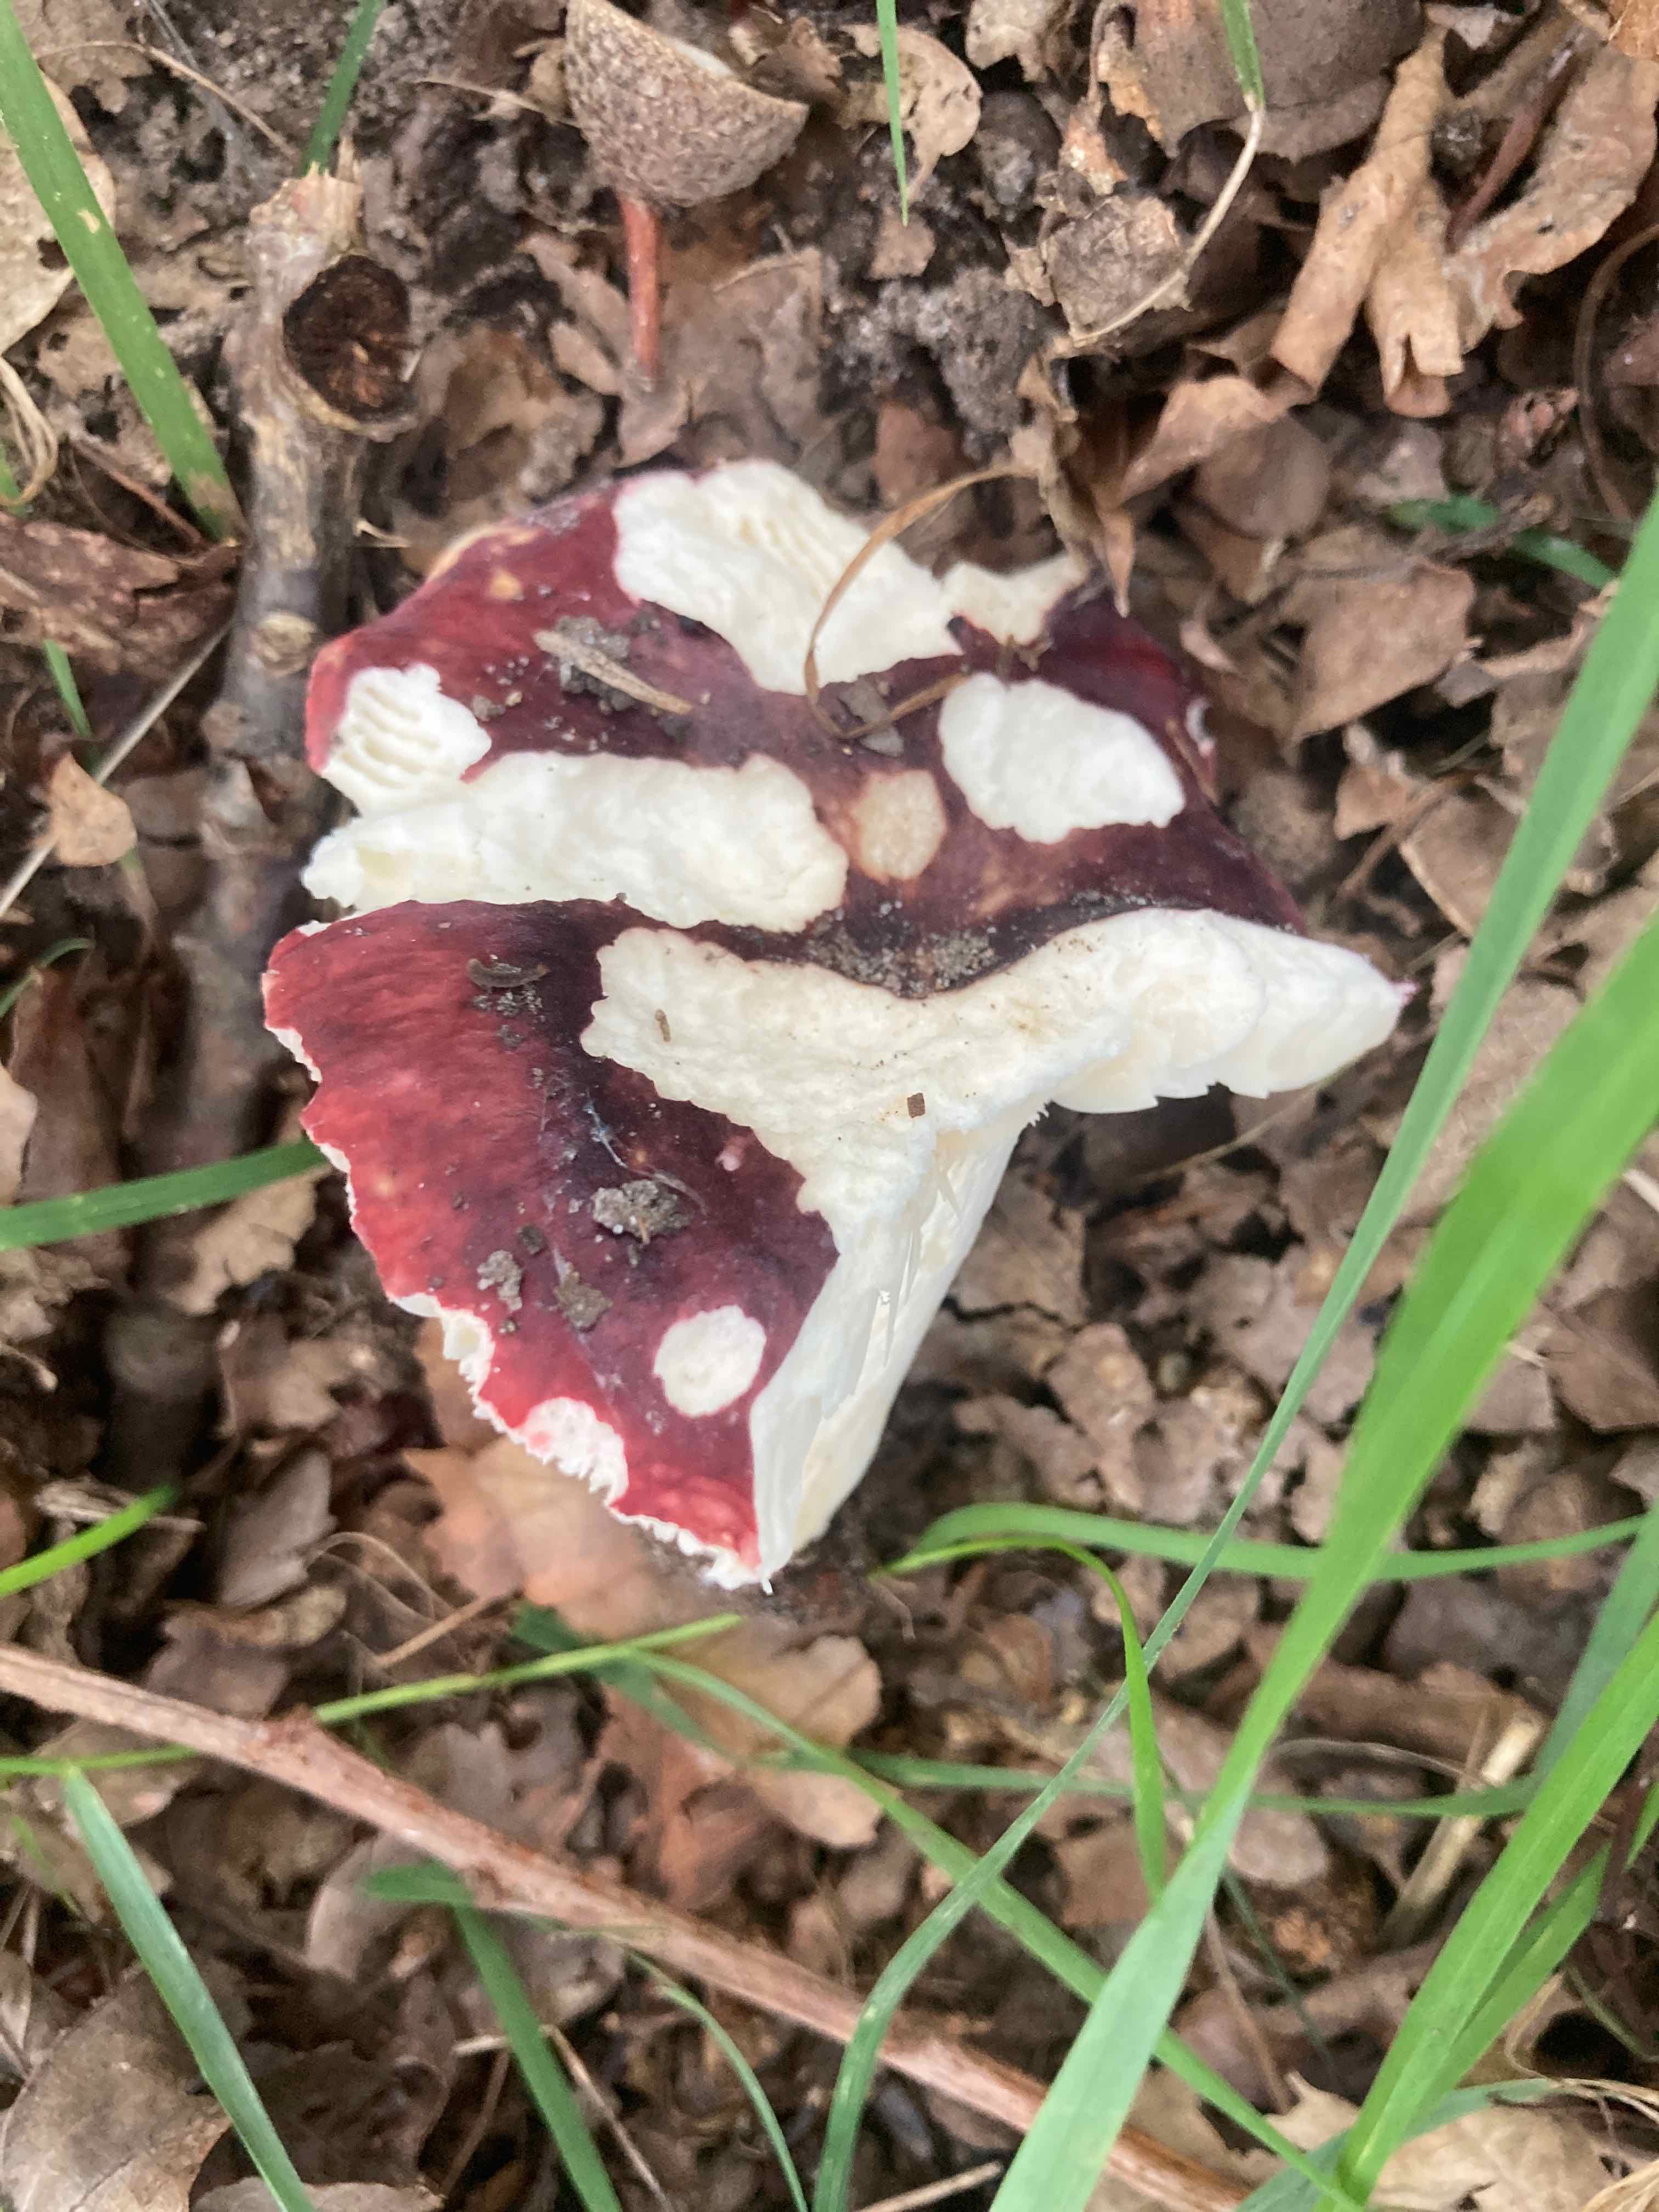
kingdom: Fungi
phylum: Basidiomycota
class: Agaricomycetes
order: Russulales
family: Russulaceae
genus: Russula
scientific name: Russula atropurpurea
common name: purpurbroget skørhat
